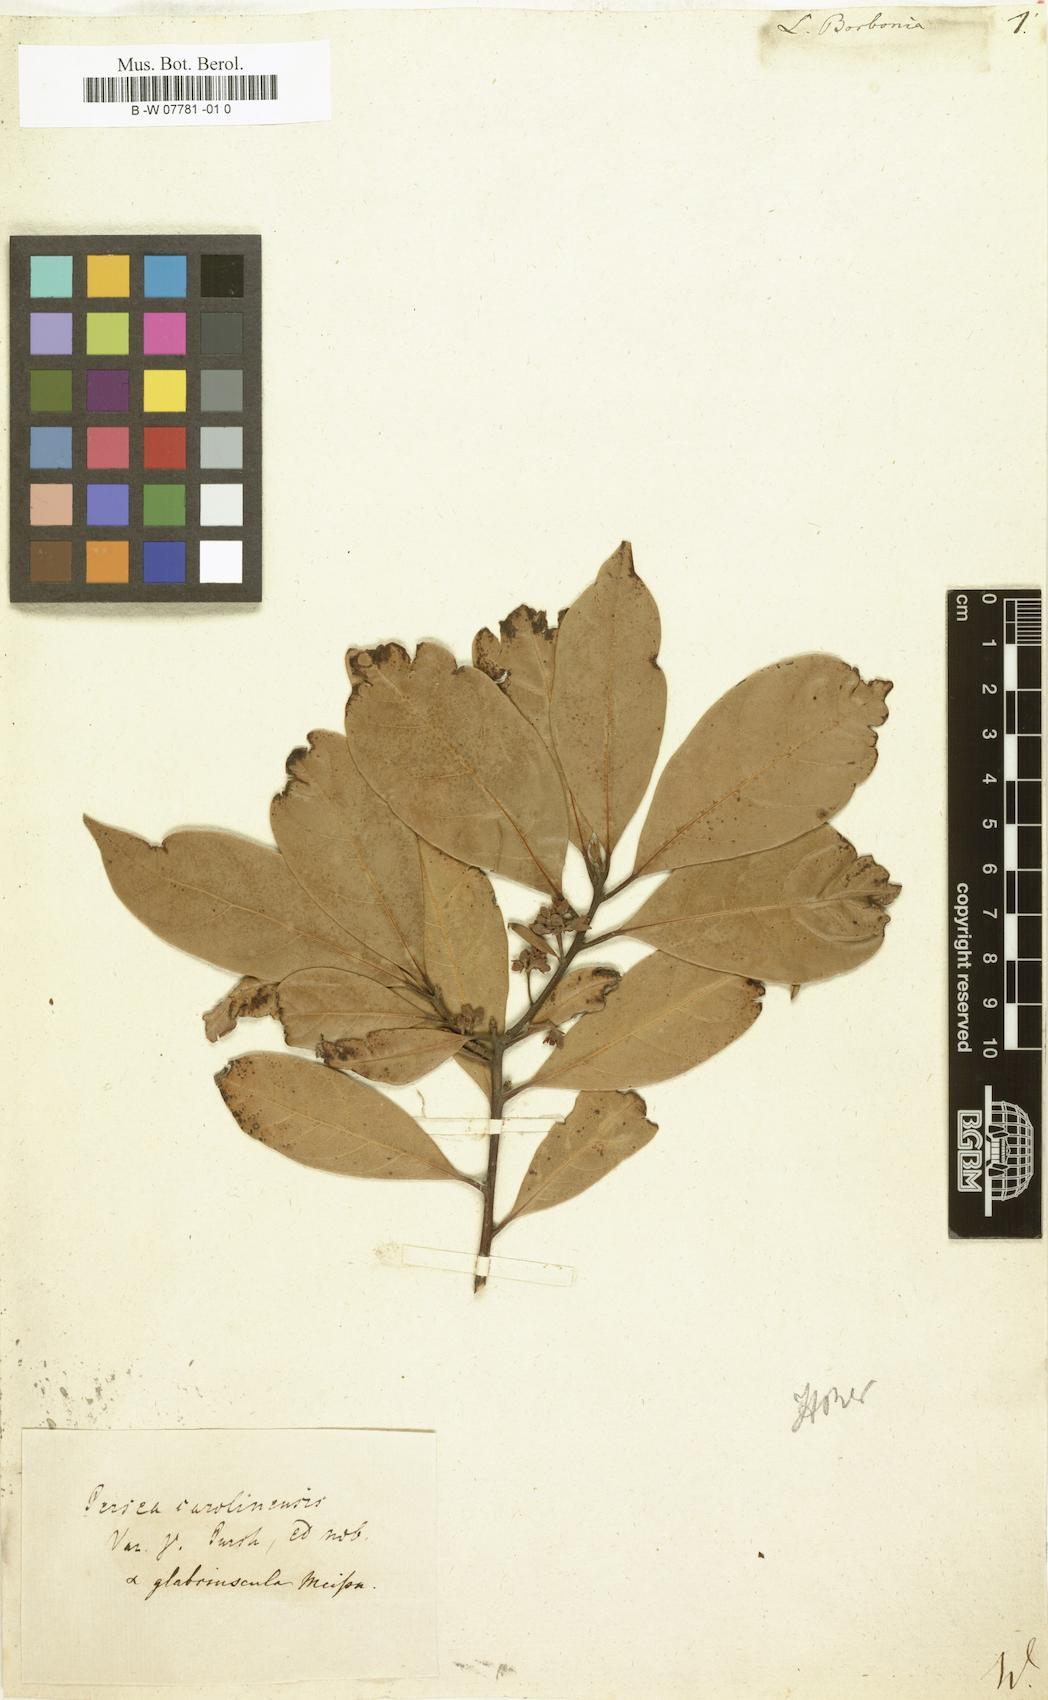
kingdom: Plantae
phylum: Tracheophyta
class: Magnoliopsida
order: Laurales
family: Lauraceae
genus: Persea
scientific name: Persea borbonia
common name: Redbay
